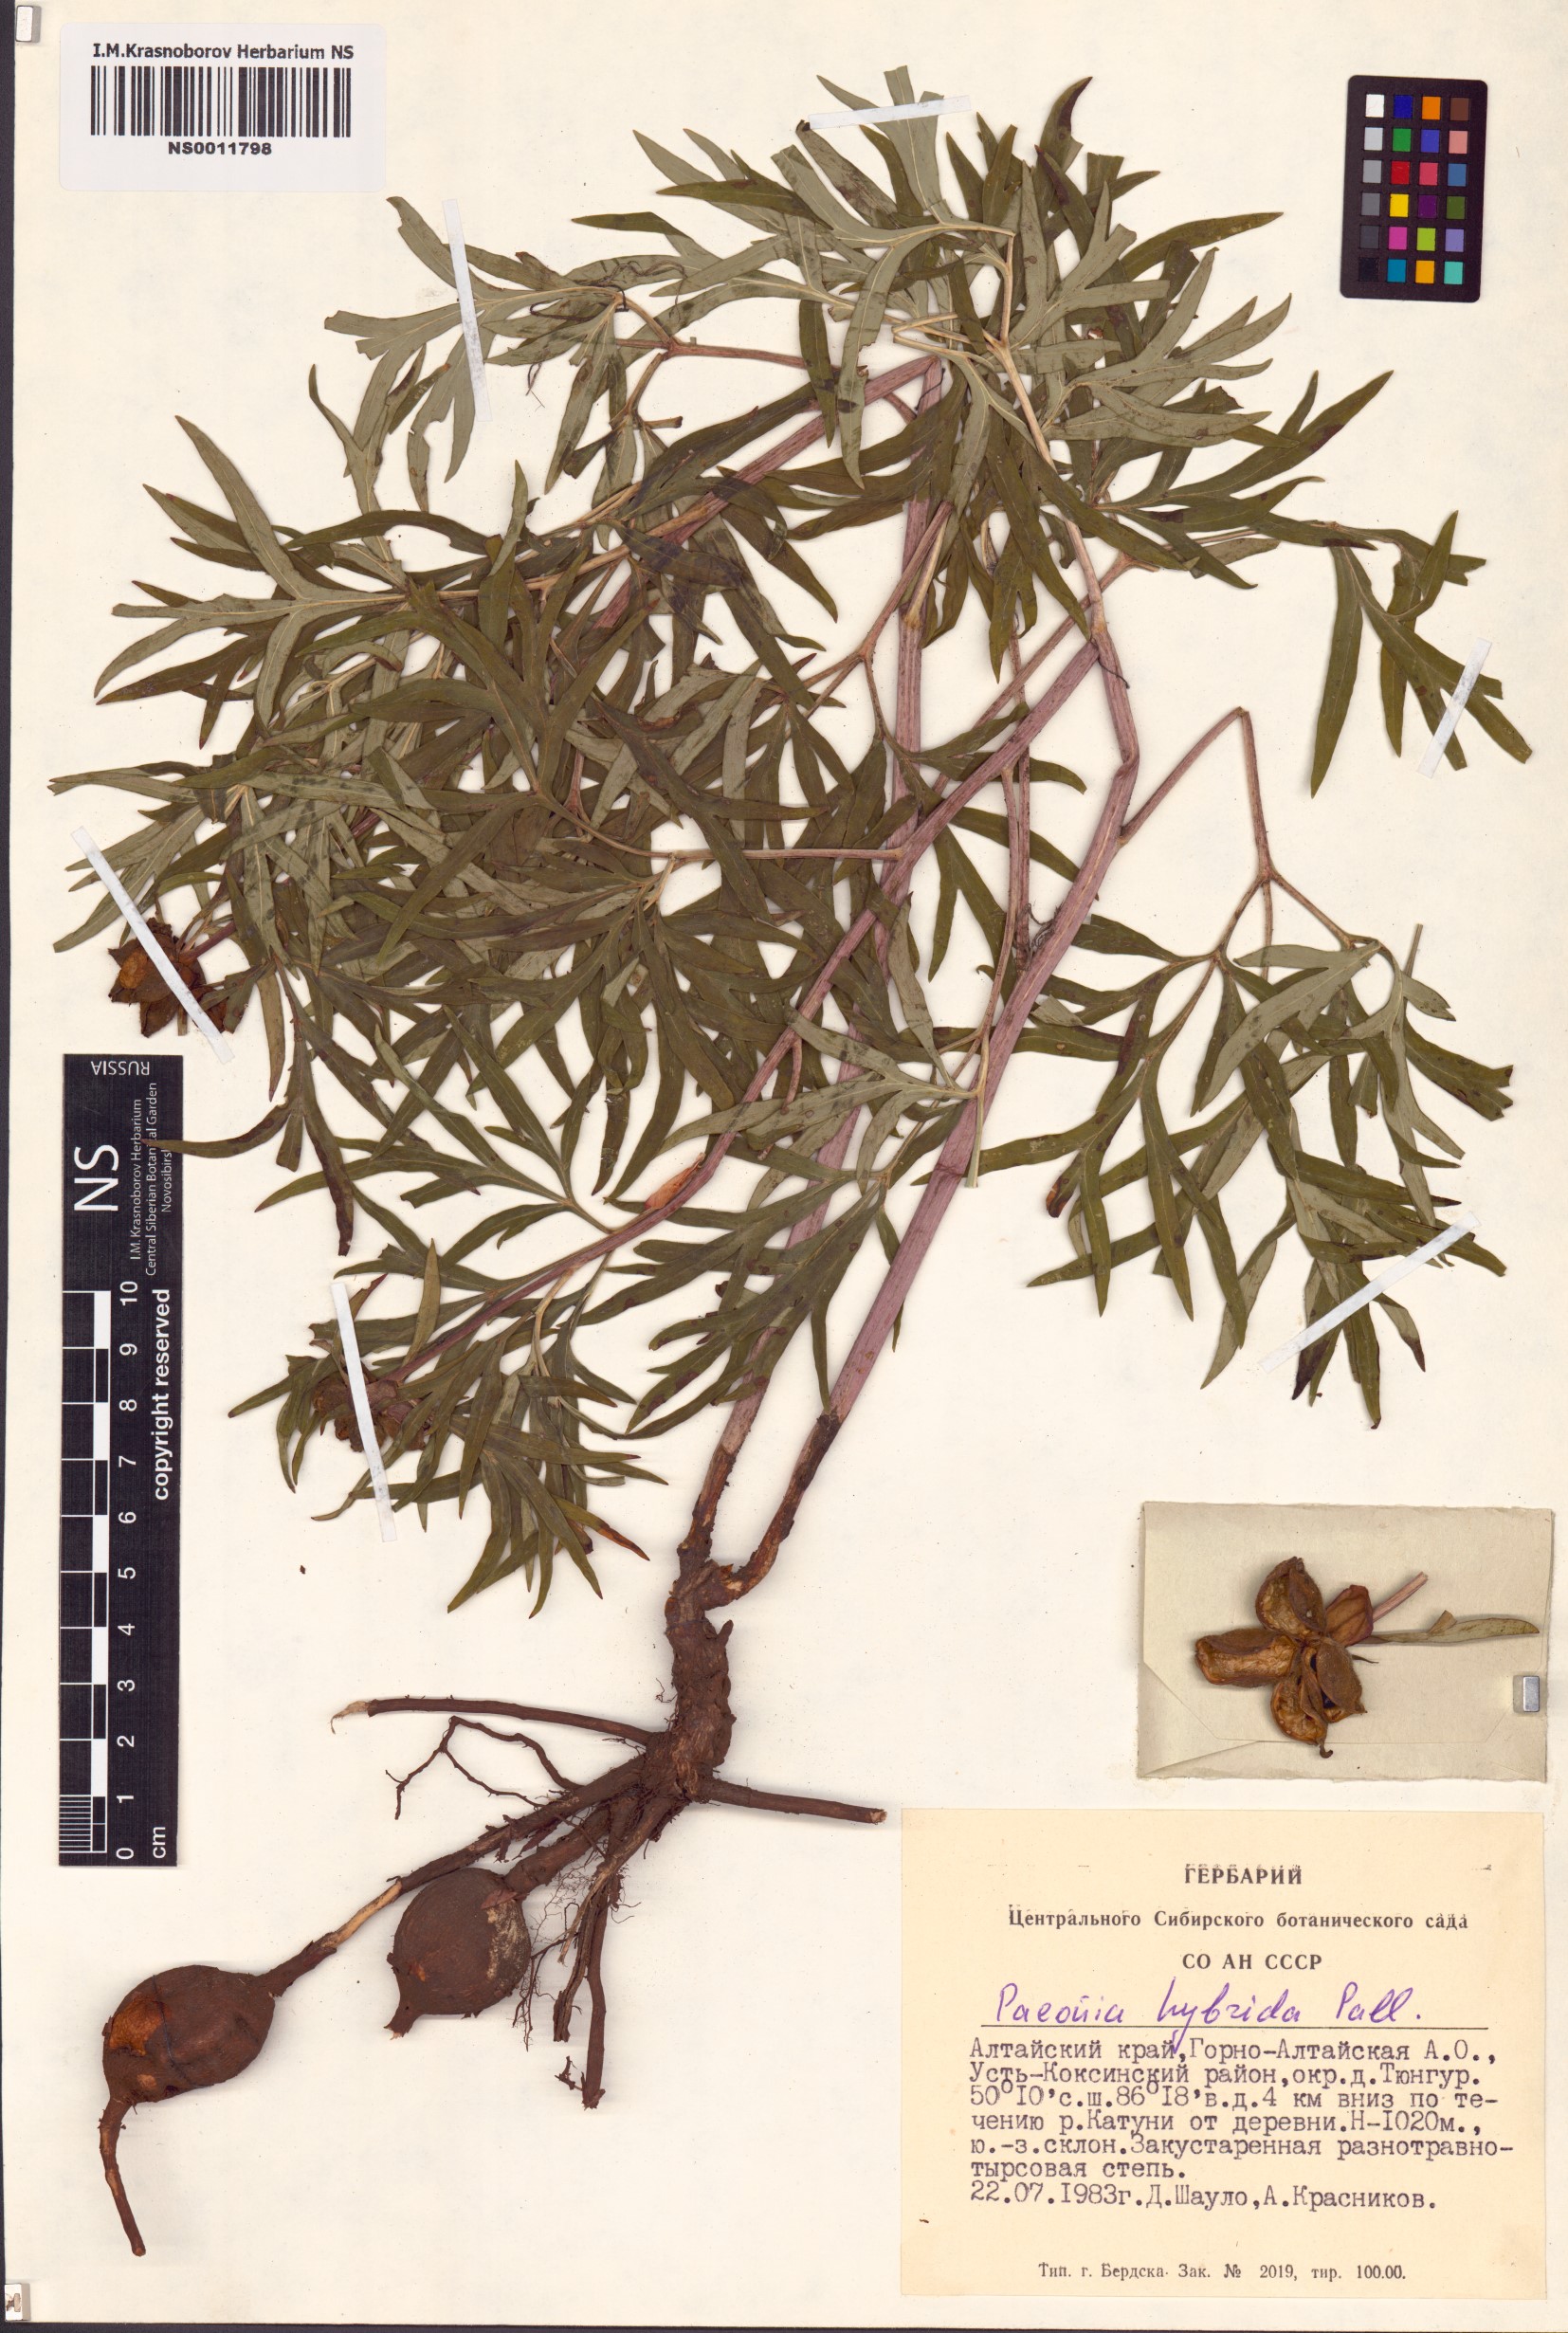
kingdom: Plantae
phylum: Tracheophyta
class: Magnoliopsida
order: Saxifragales
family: Paeoniaceae
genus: Paeonia
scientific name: Paeonia
